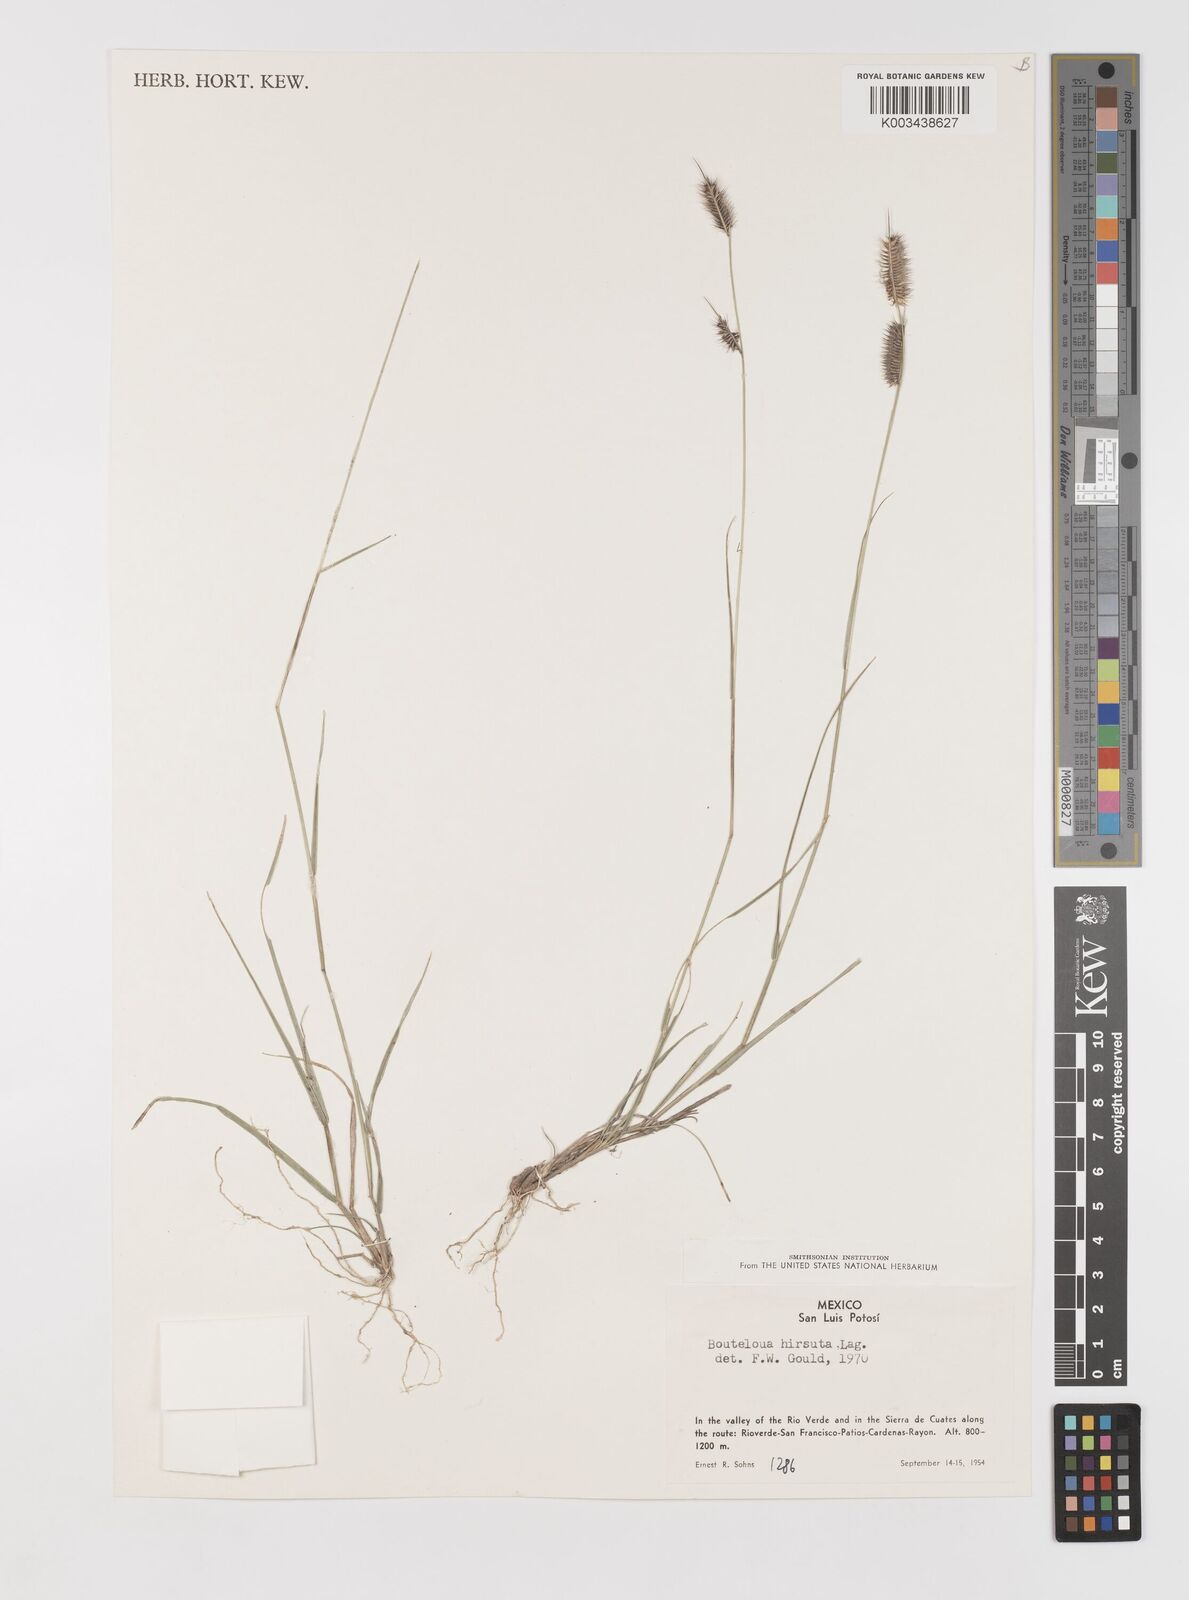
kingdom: Plantae
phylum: Tracheophyta
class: Liliopsida
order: Poales
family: Poaceae
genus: Bouteloua
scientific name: Bouteloua hirsuta
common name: Hairy grama
